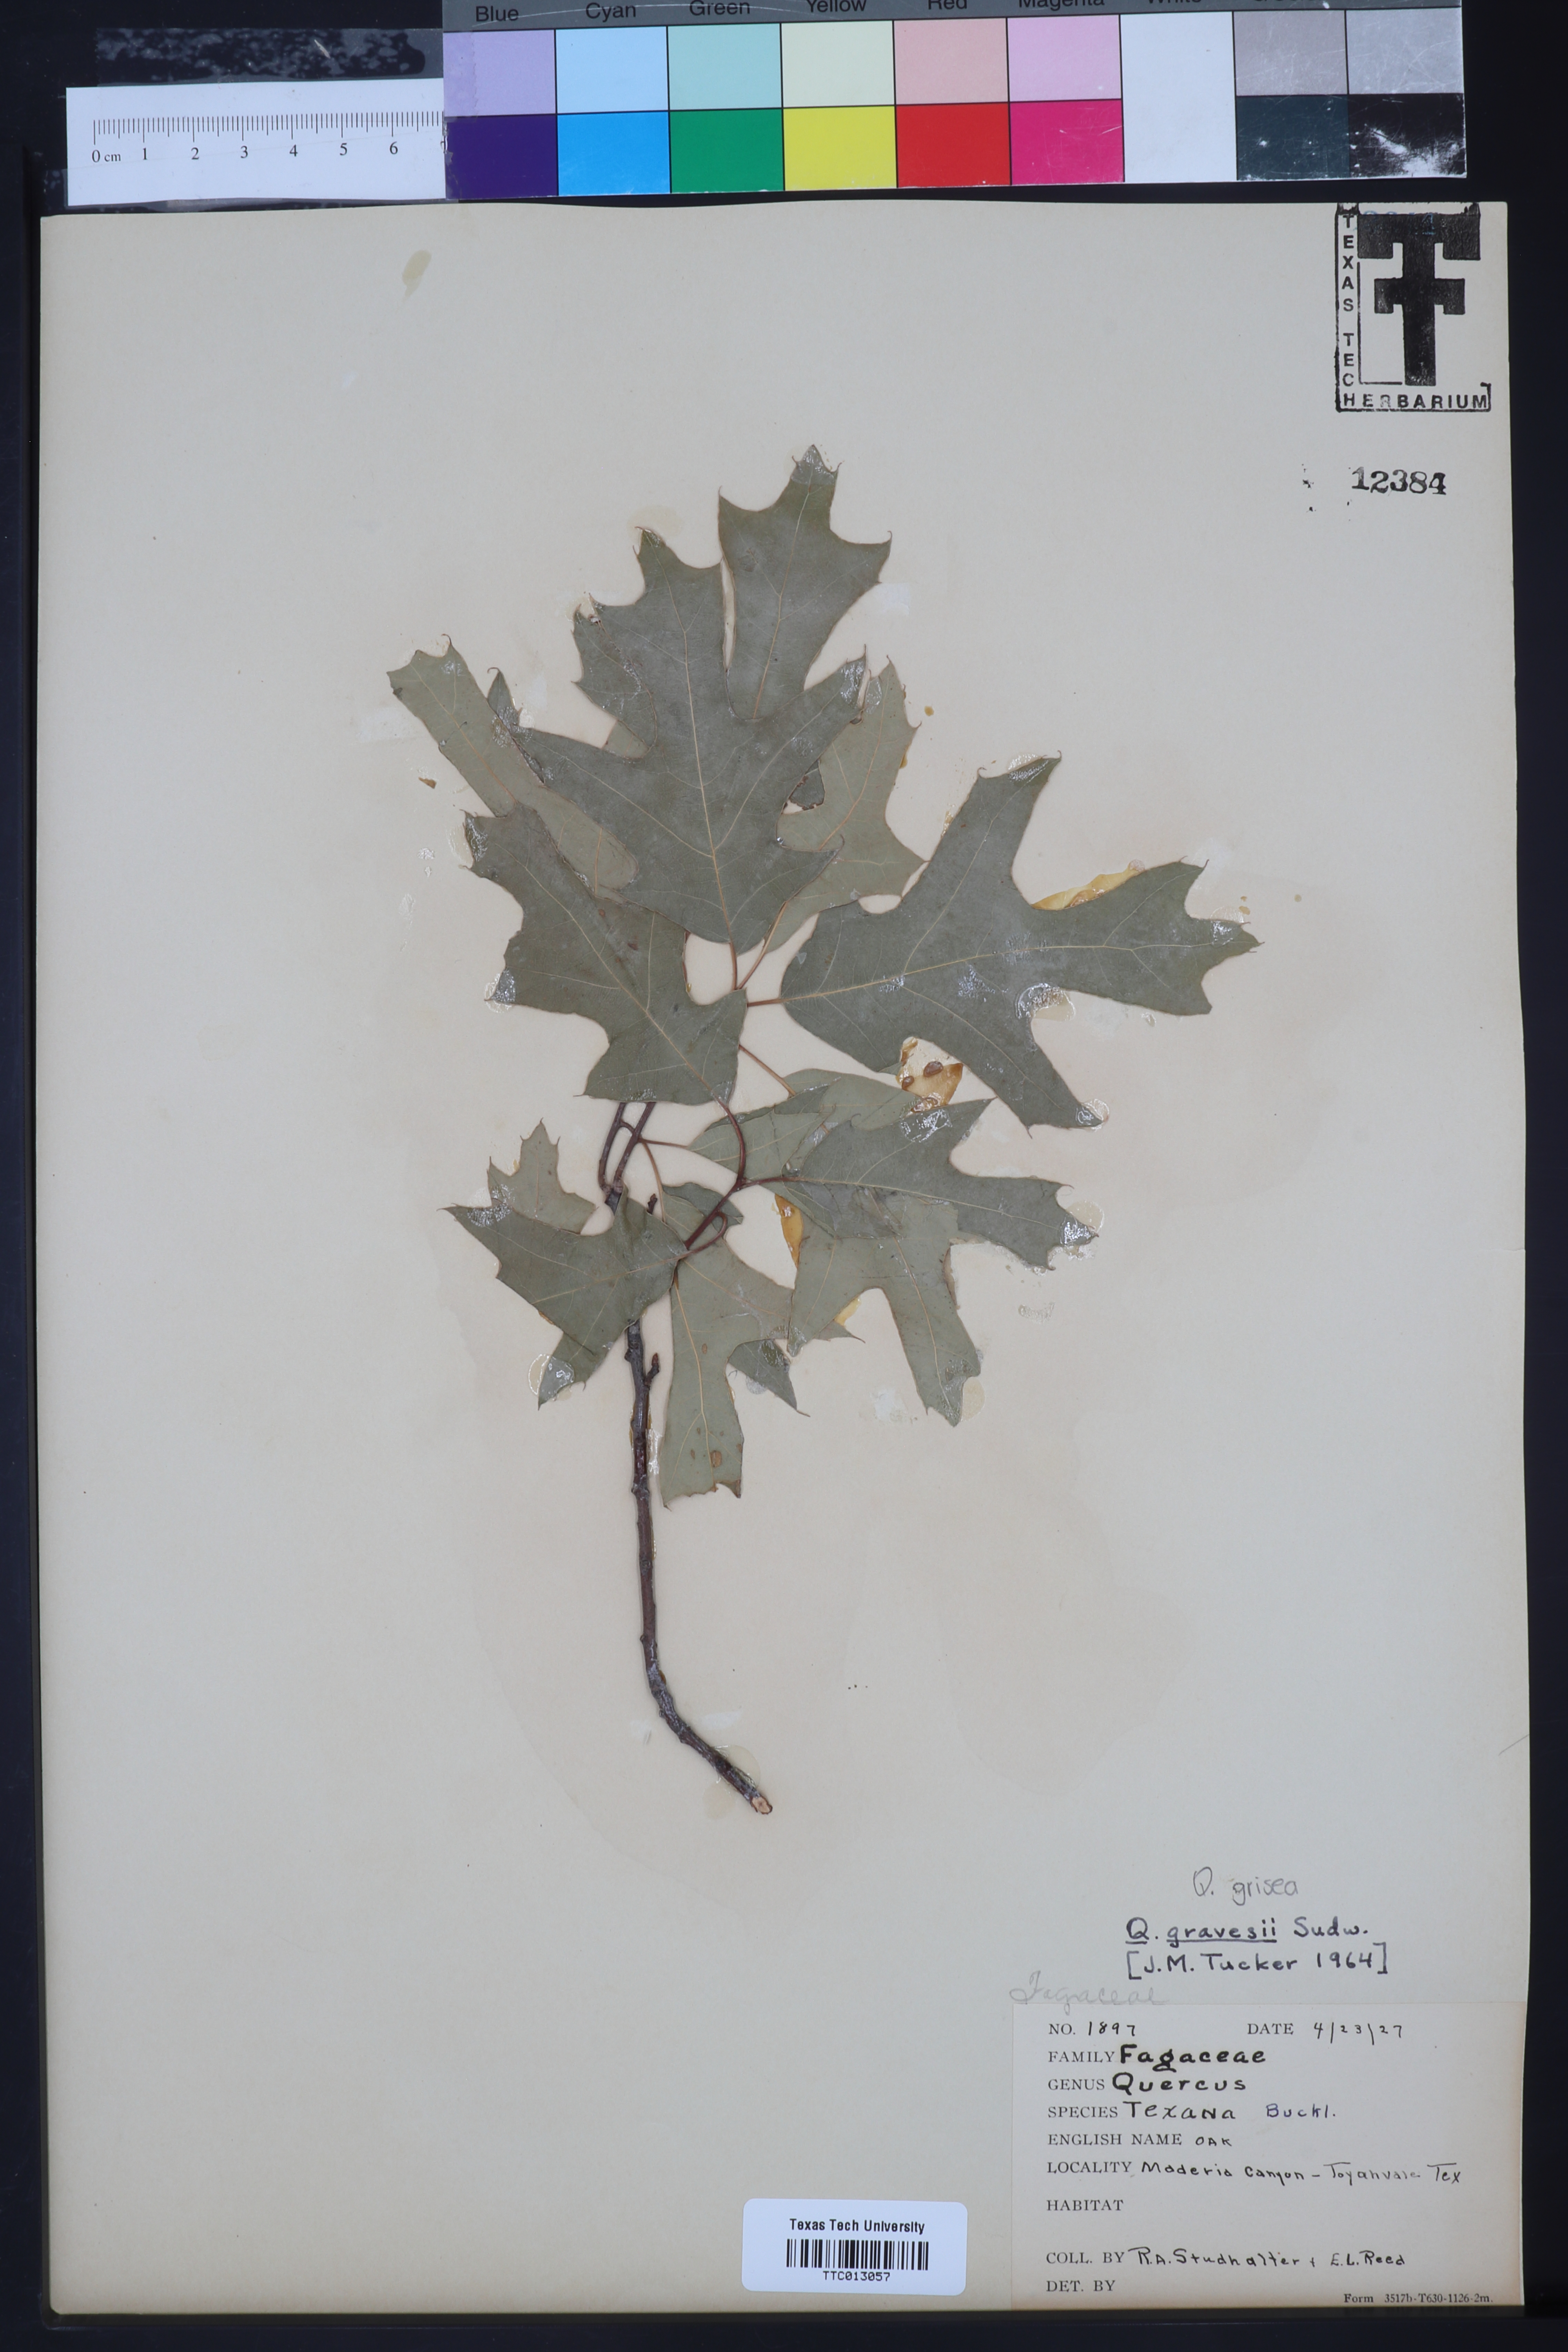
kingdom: Plantae
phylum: Tracheophyta
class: Magnoliopsida
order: Fagales
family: Fagaceae
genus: Quercus
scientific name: Quercus gravesii
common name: Chisos red oak
